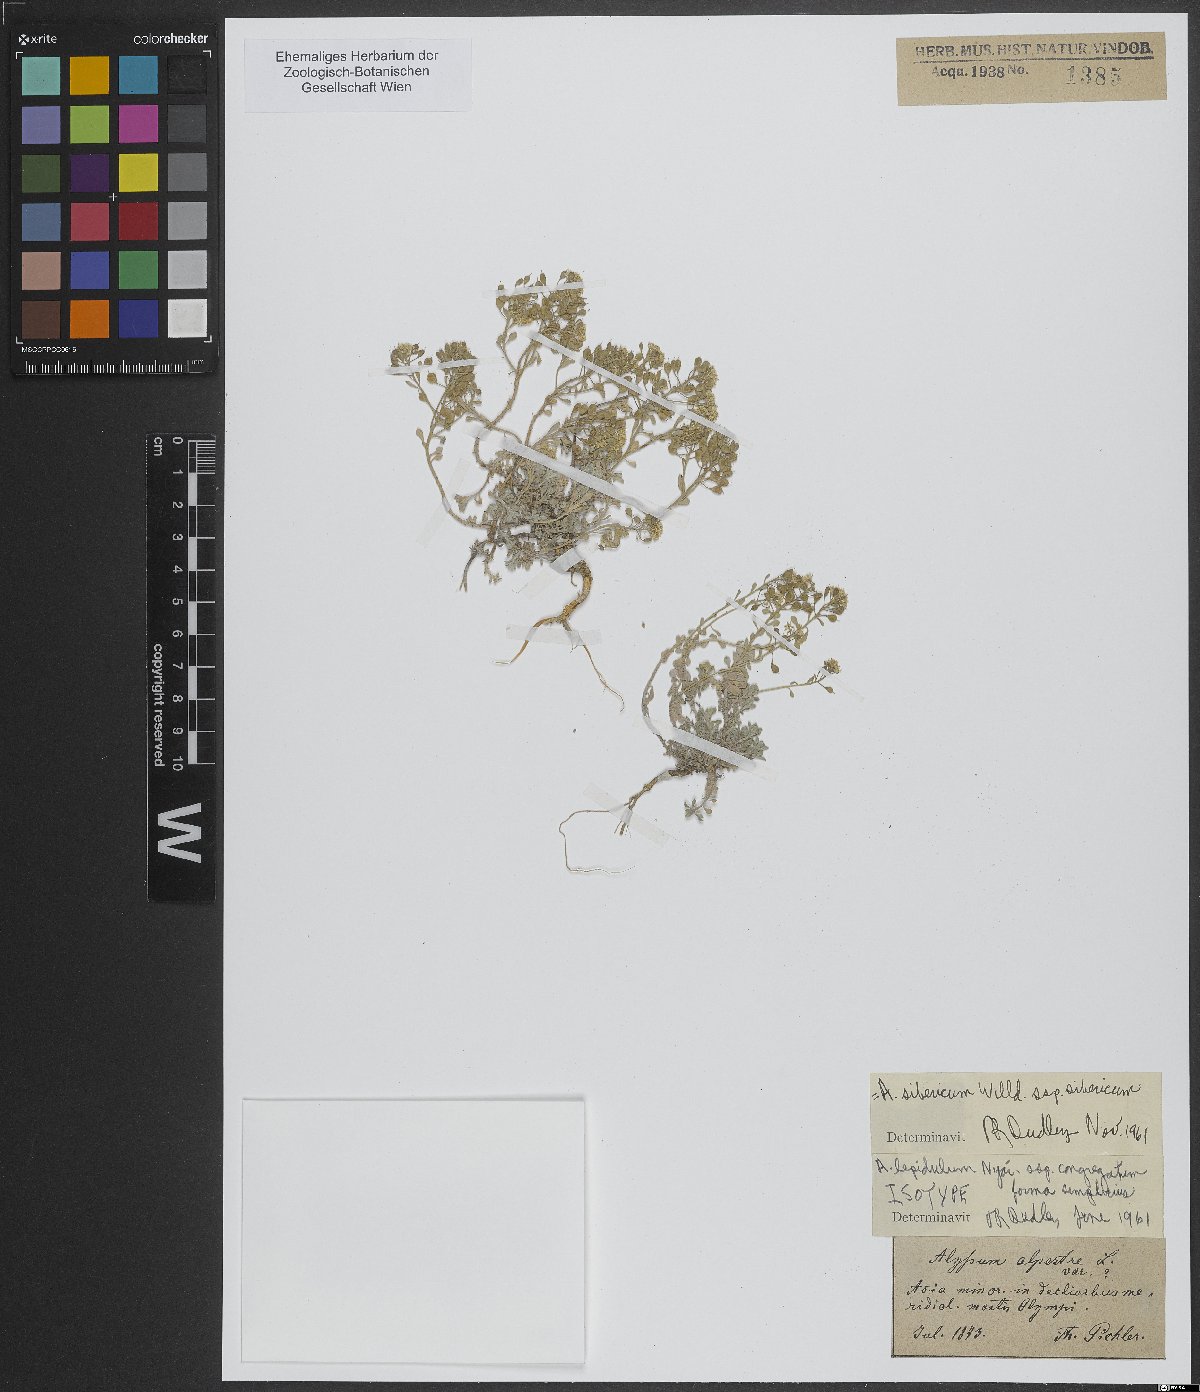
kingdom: Plantae
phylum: Tracheophyta
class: Magnoliopsida
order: Brassicales
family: Brassicaceae
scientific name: Brassicaceae
